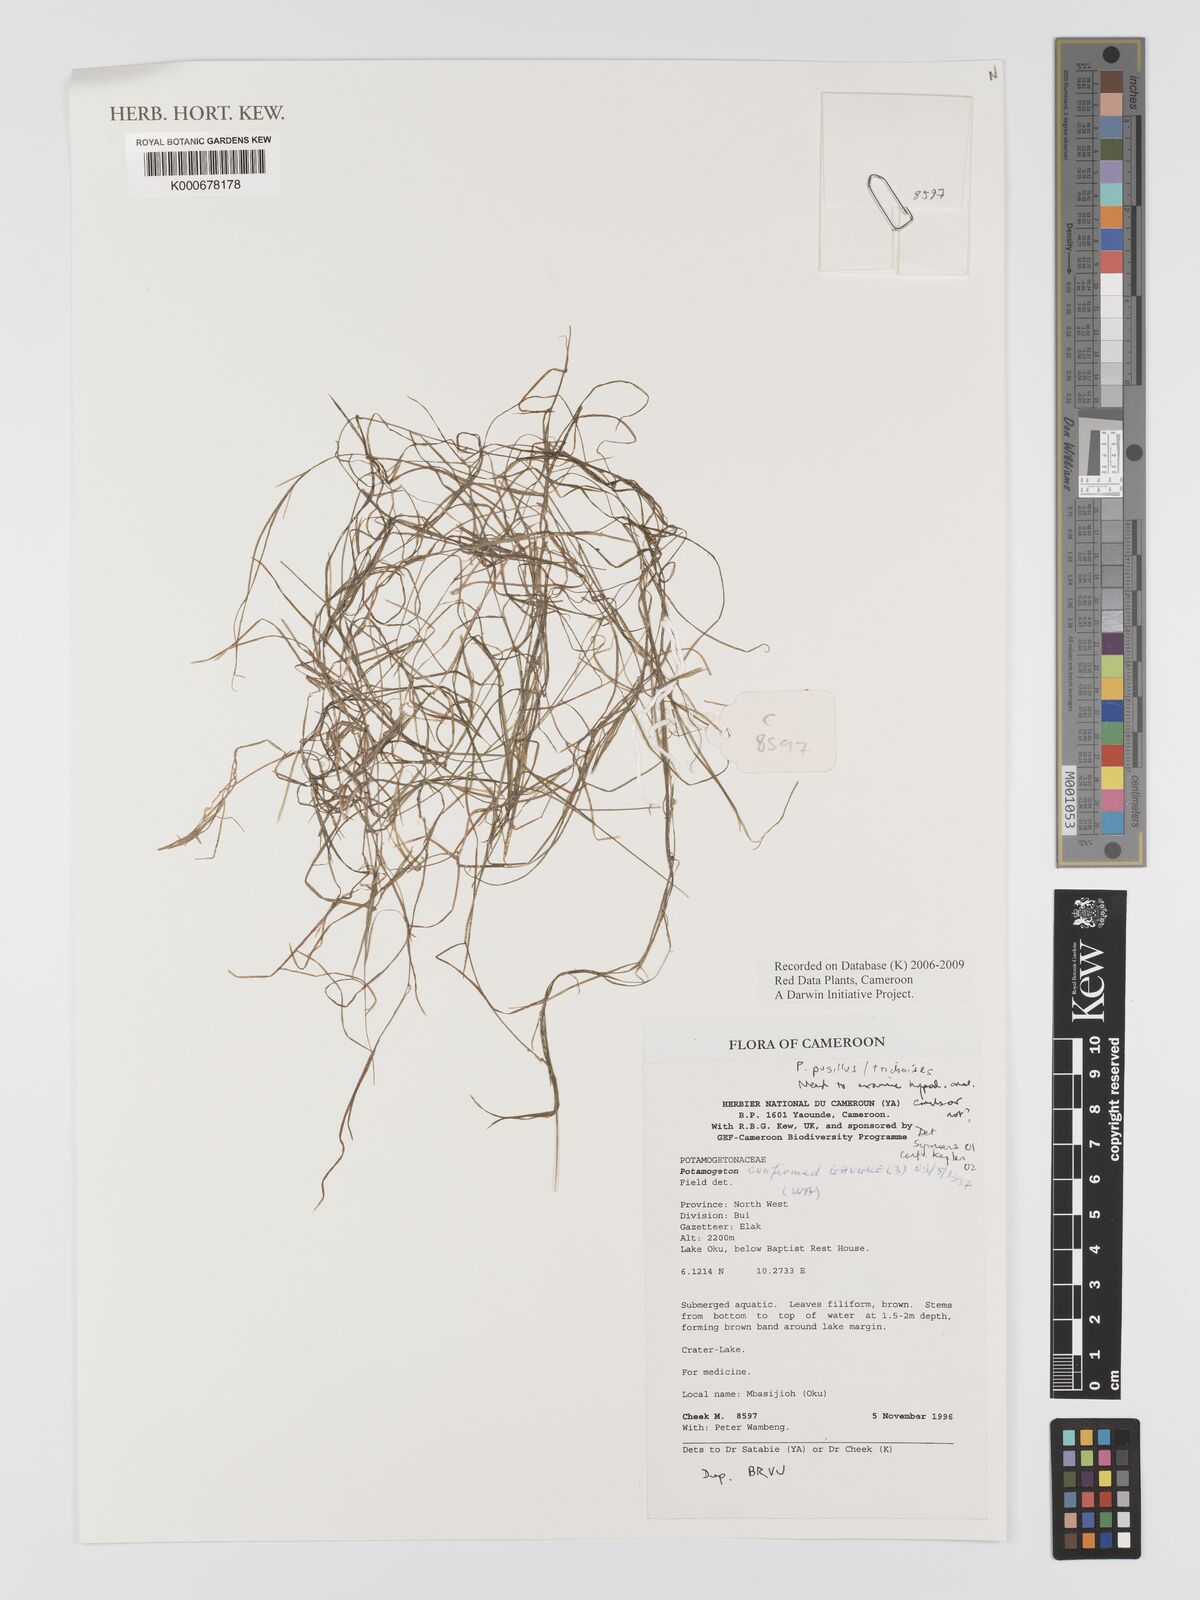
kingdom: Plantae
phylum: Tracheophyta
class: Liliopsida
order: Alismatales
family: Potamogetonaceae
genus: Potamogeton
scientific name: Potamogeton
